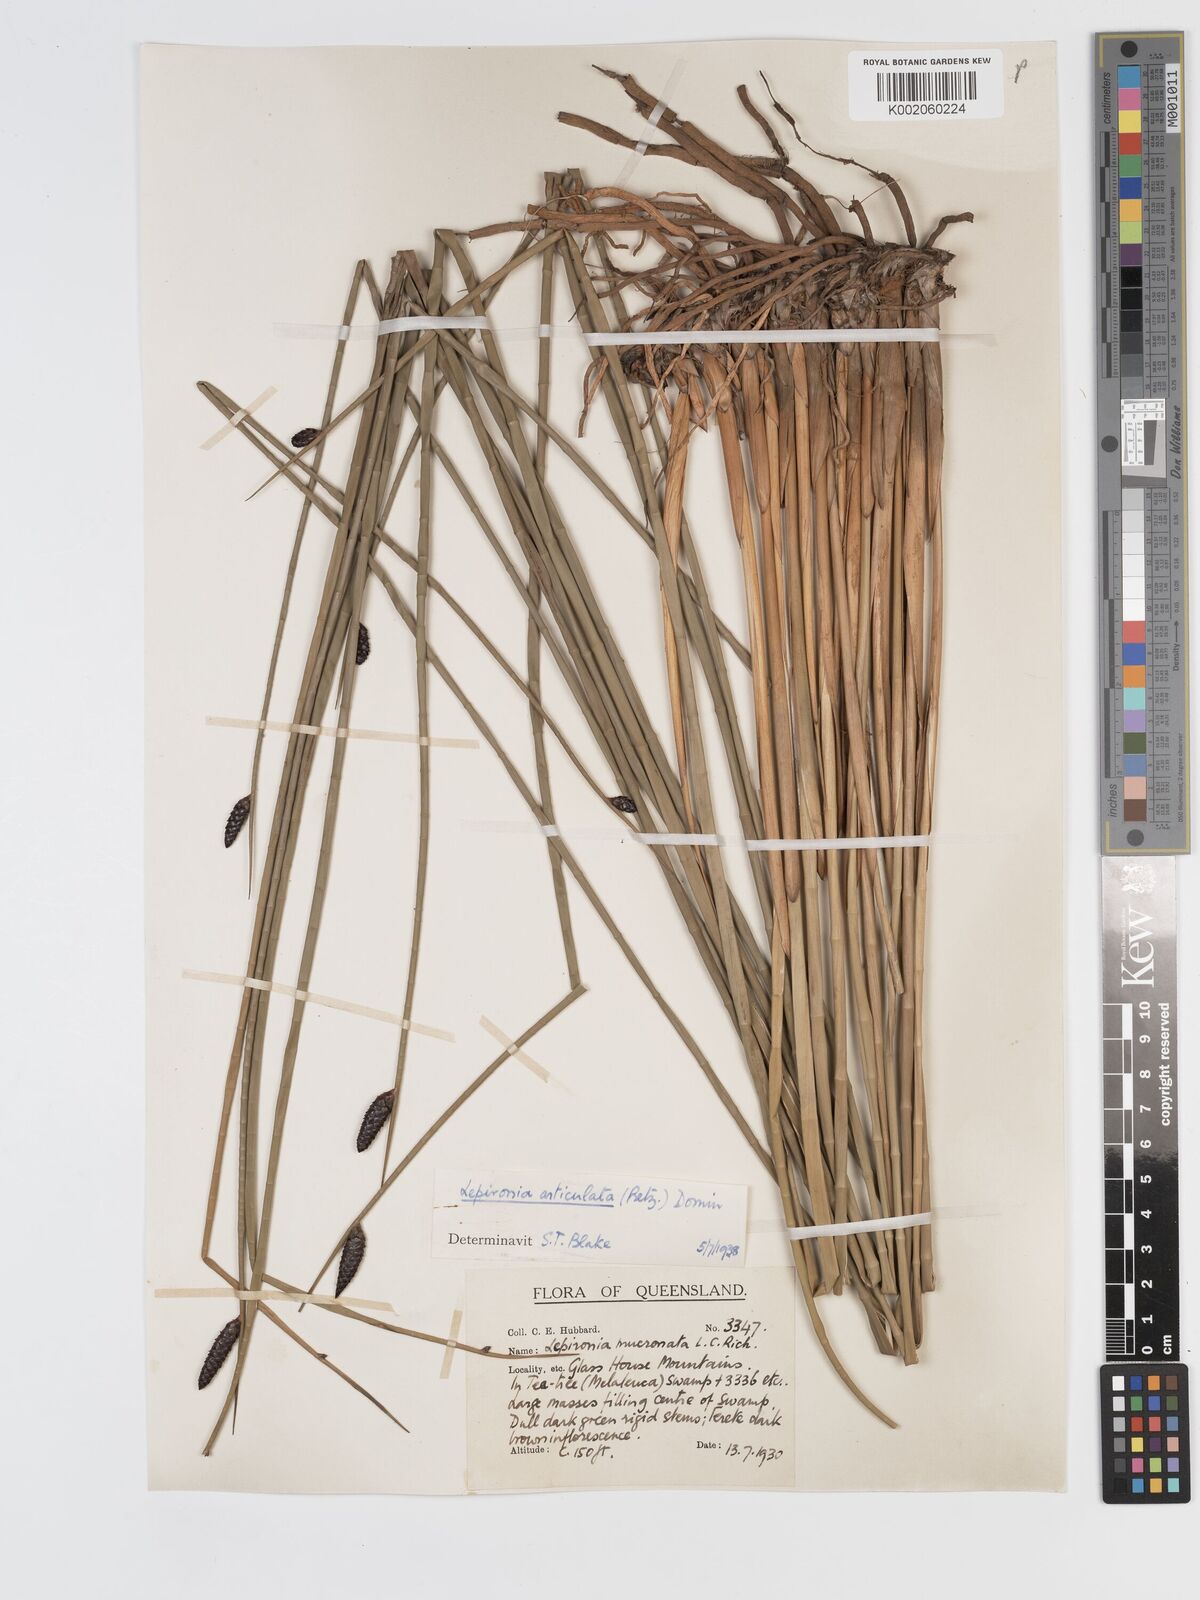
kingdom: Plantae
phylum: Tracheophyta
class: Liliopsida
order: Poales
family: Cyperaceae
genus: Lepironia
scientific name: Lepironia articulata
